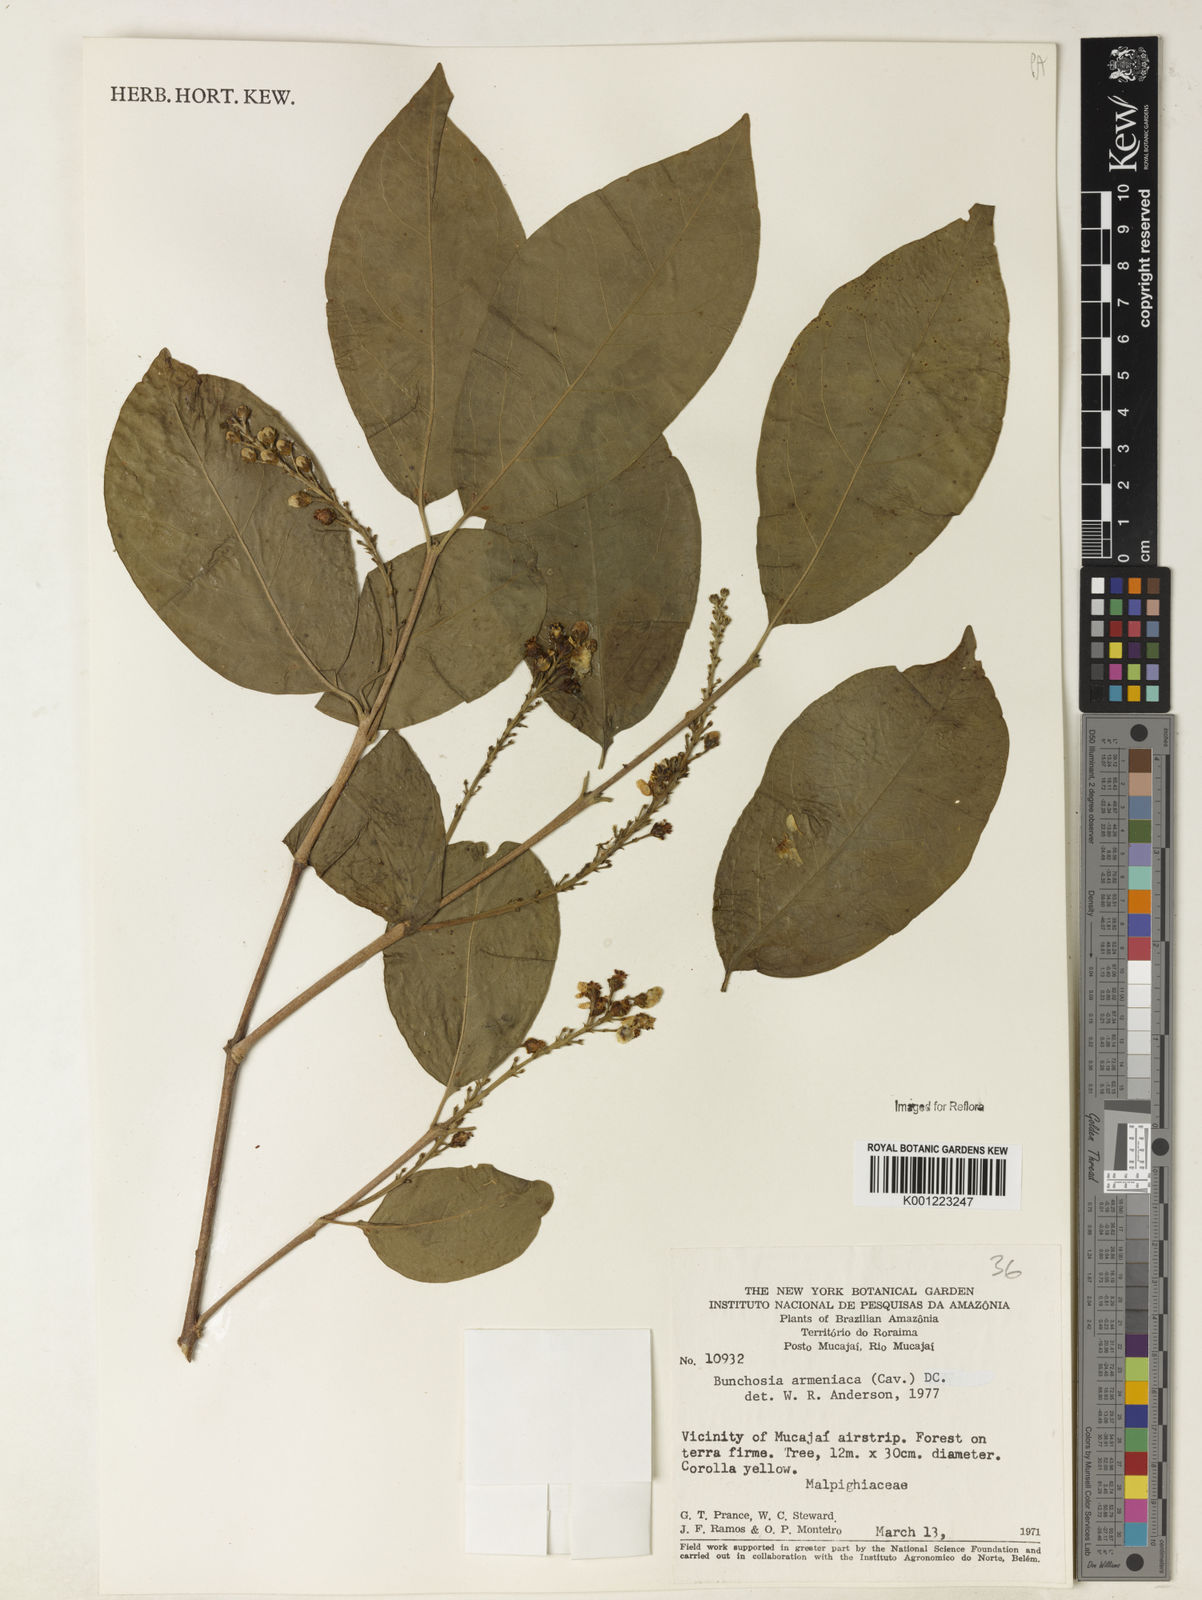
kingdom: Plantae
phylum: Tracheophyta
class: Magnoliopsida
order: Malpighiales
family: Malpighiaceae
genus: Bunchosia
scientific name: Bunchosia armeniaca
